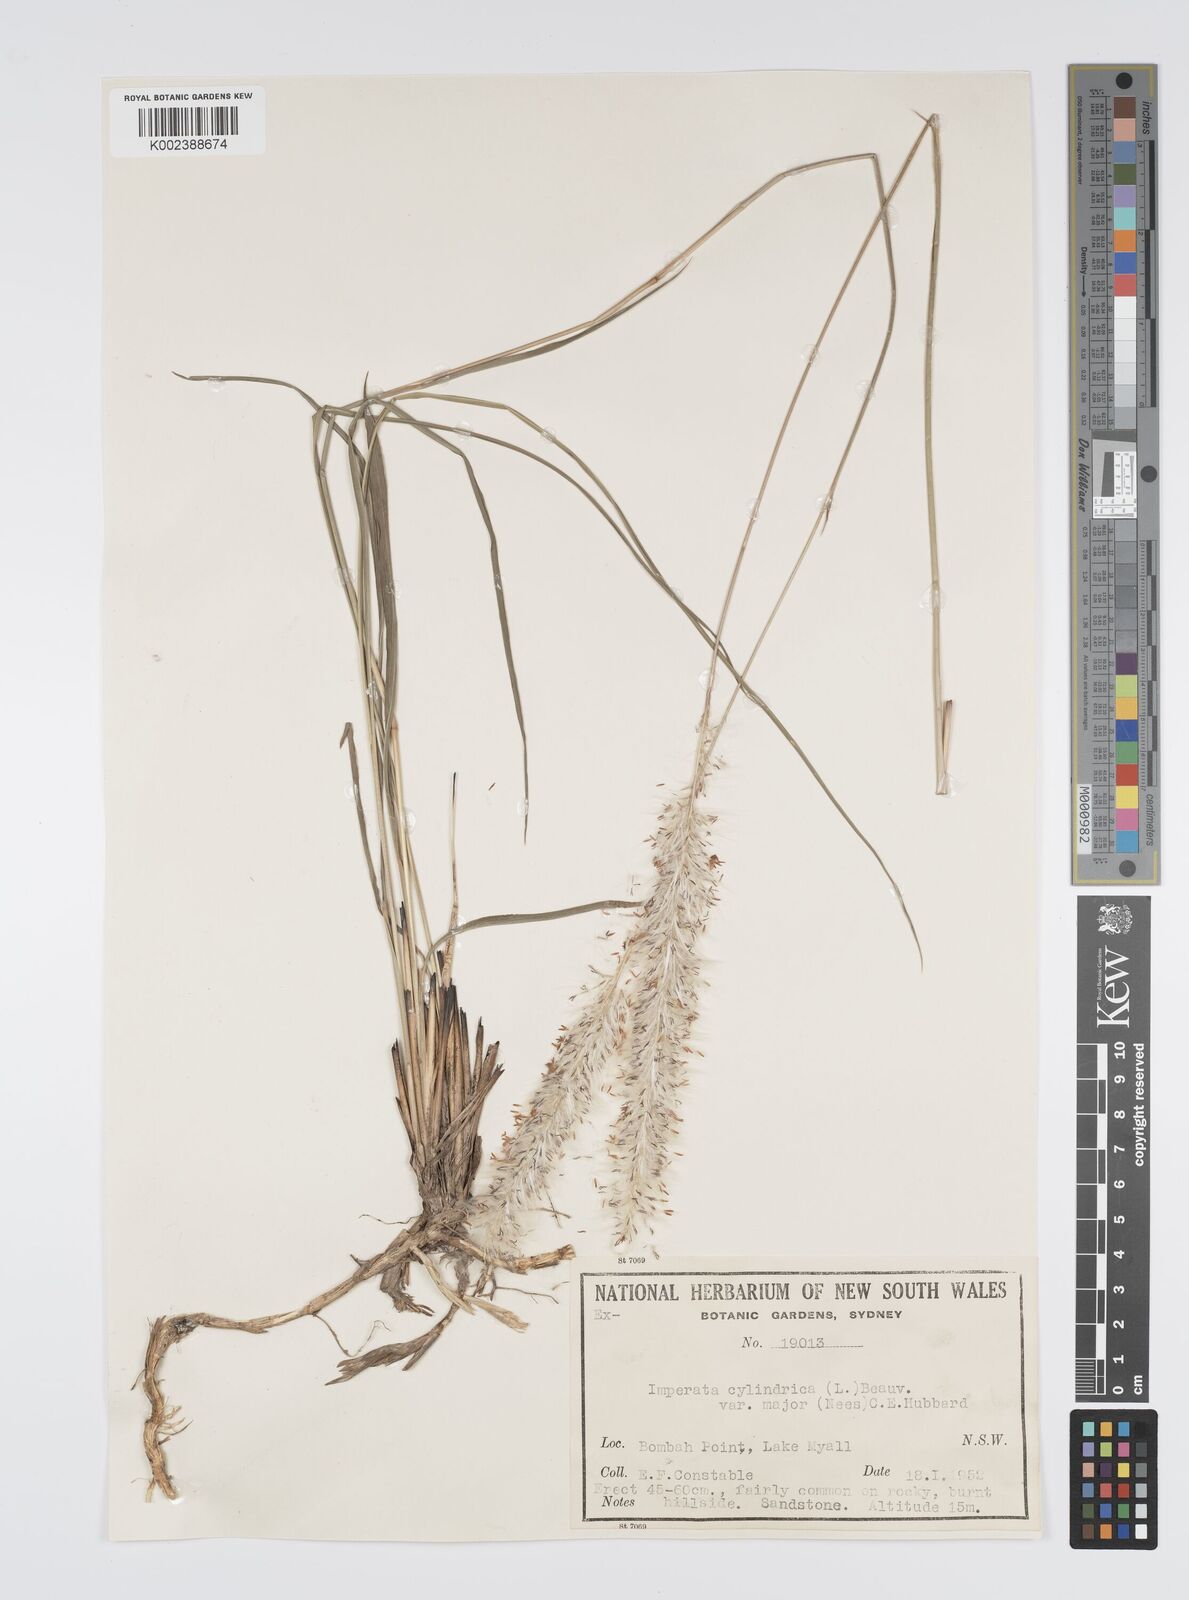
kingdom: Plantae
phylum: Tracheophyta
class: Liliopsida
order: Poales
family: Poaceae
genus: Imperata
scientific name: Imperata cylindrica
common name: Cogongrass
